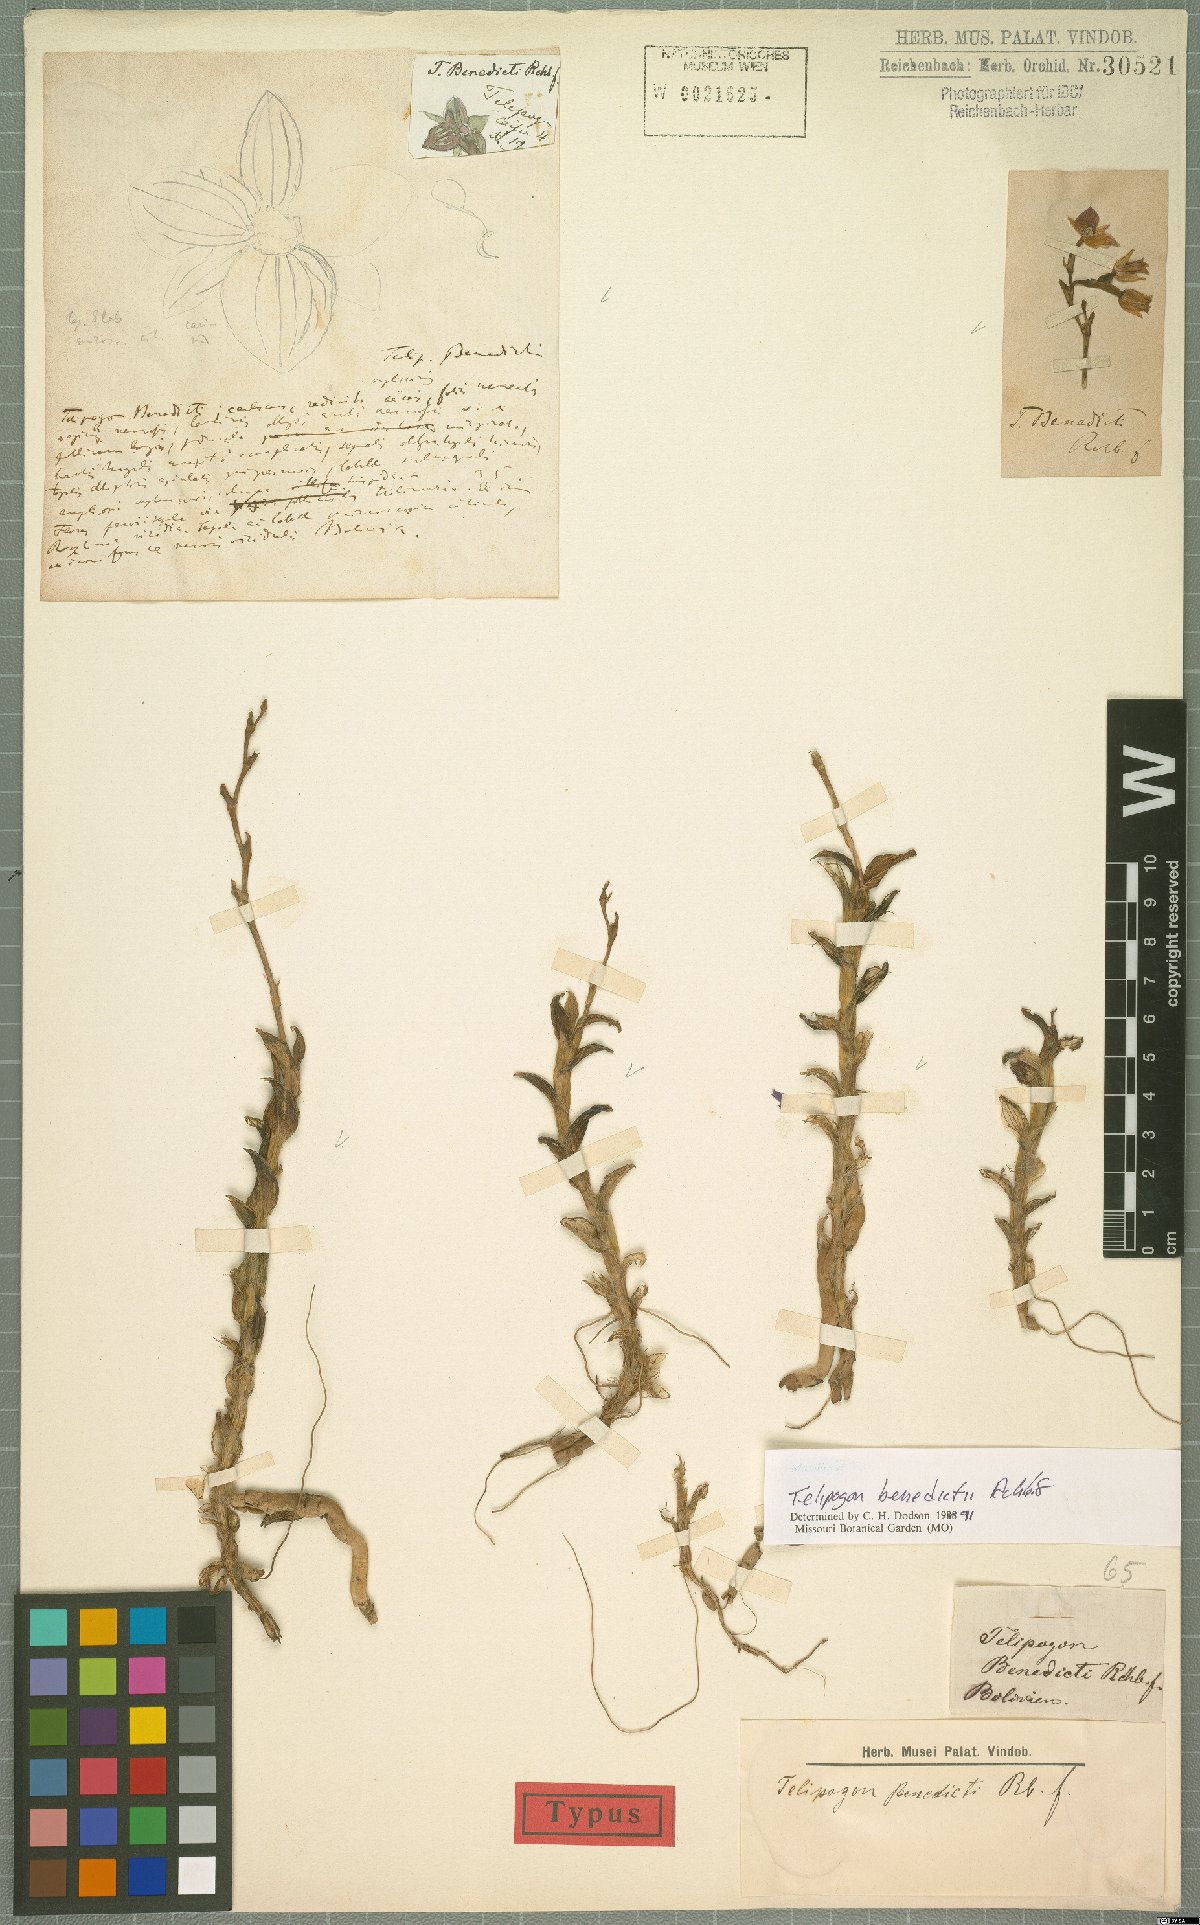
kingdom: Plantae
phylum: Tracheophyta
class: Liliopsida
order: Asparagales
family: Orchidaceae
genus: Telipogon
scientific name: Telipogon benedicti
